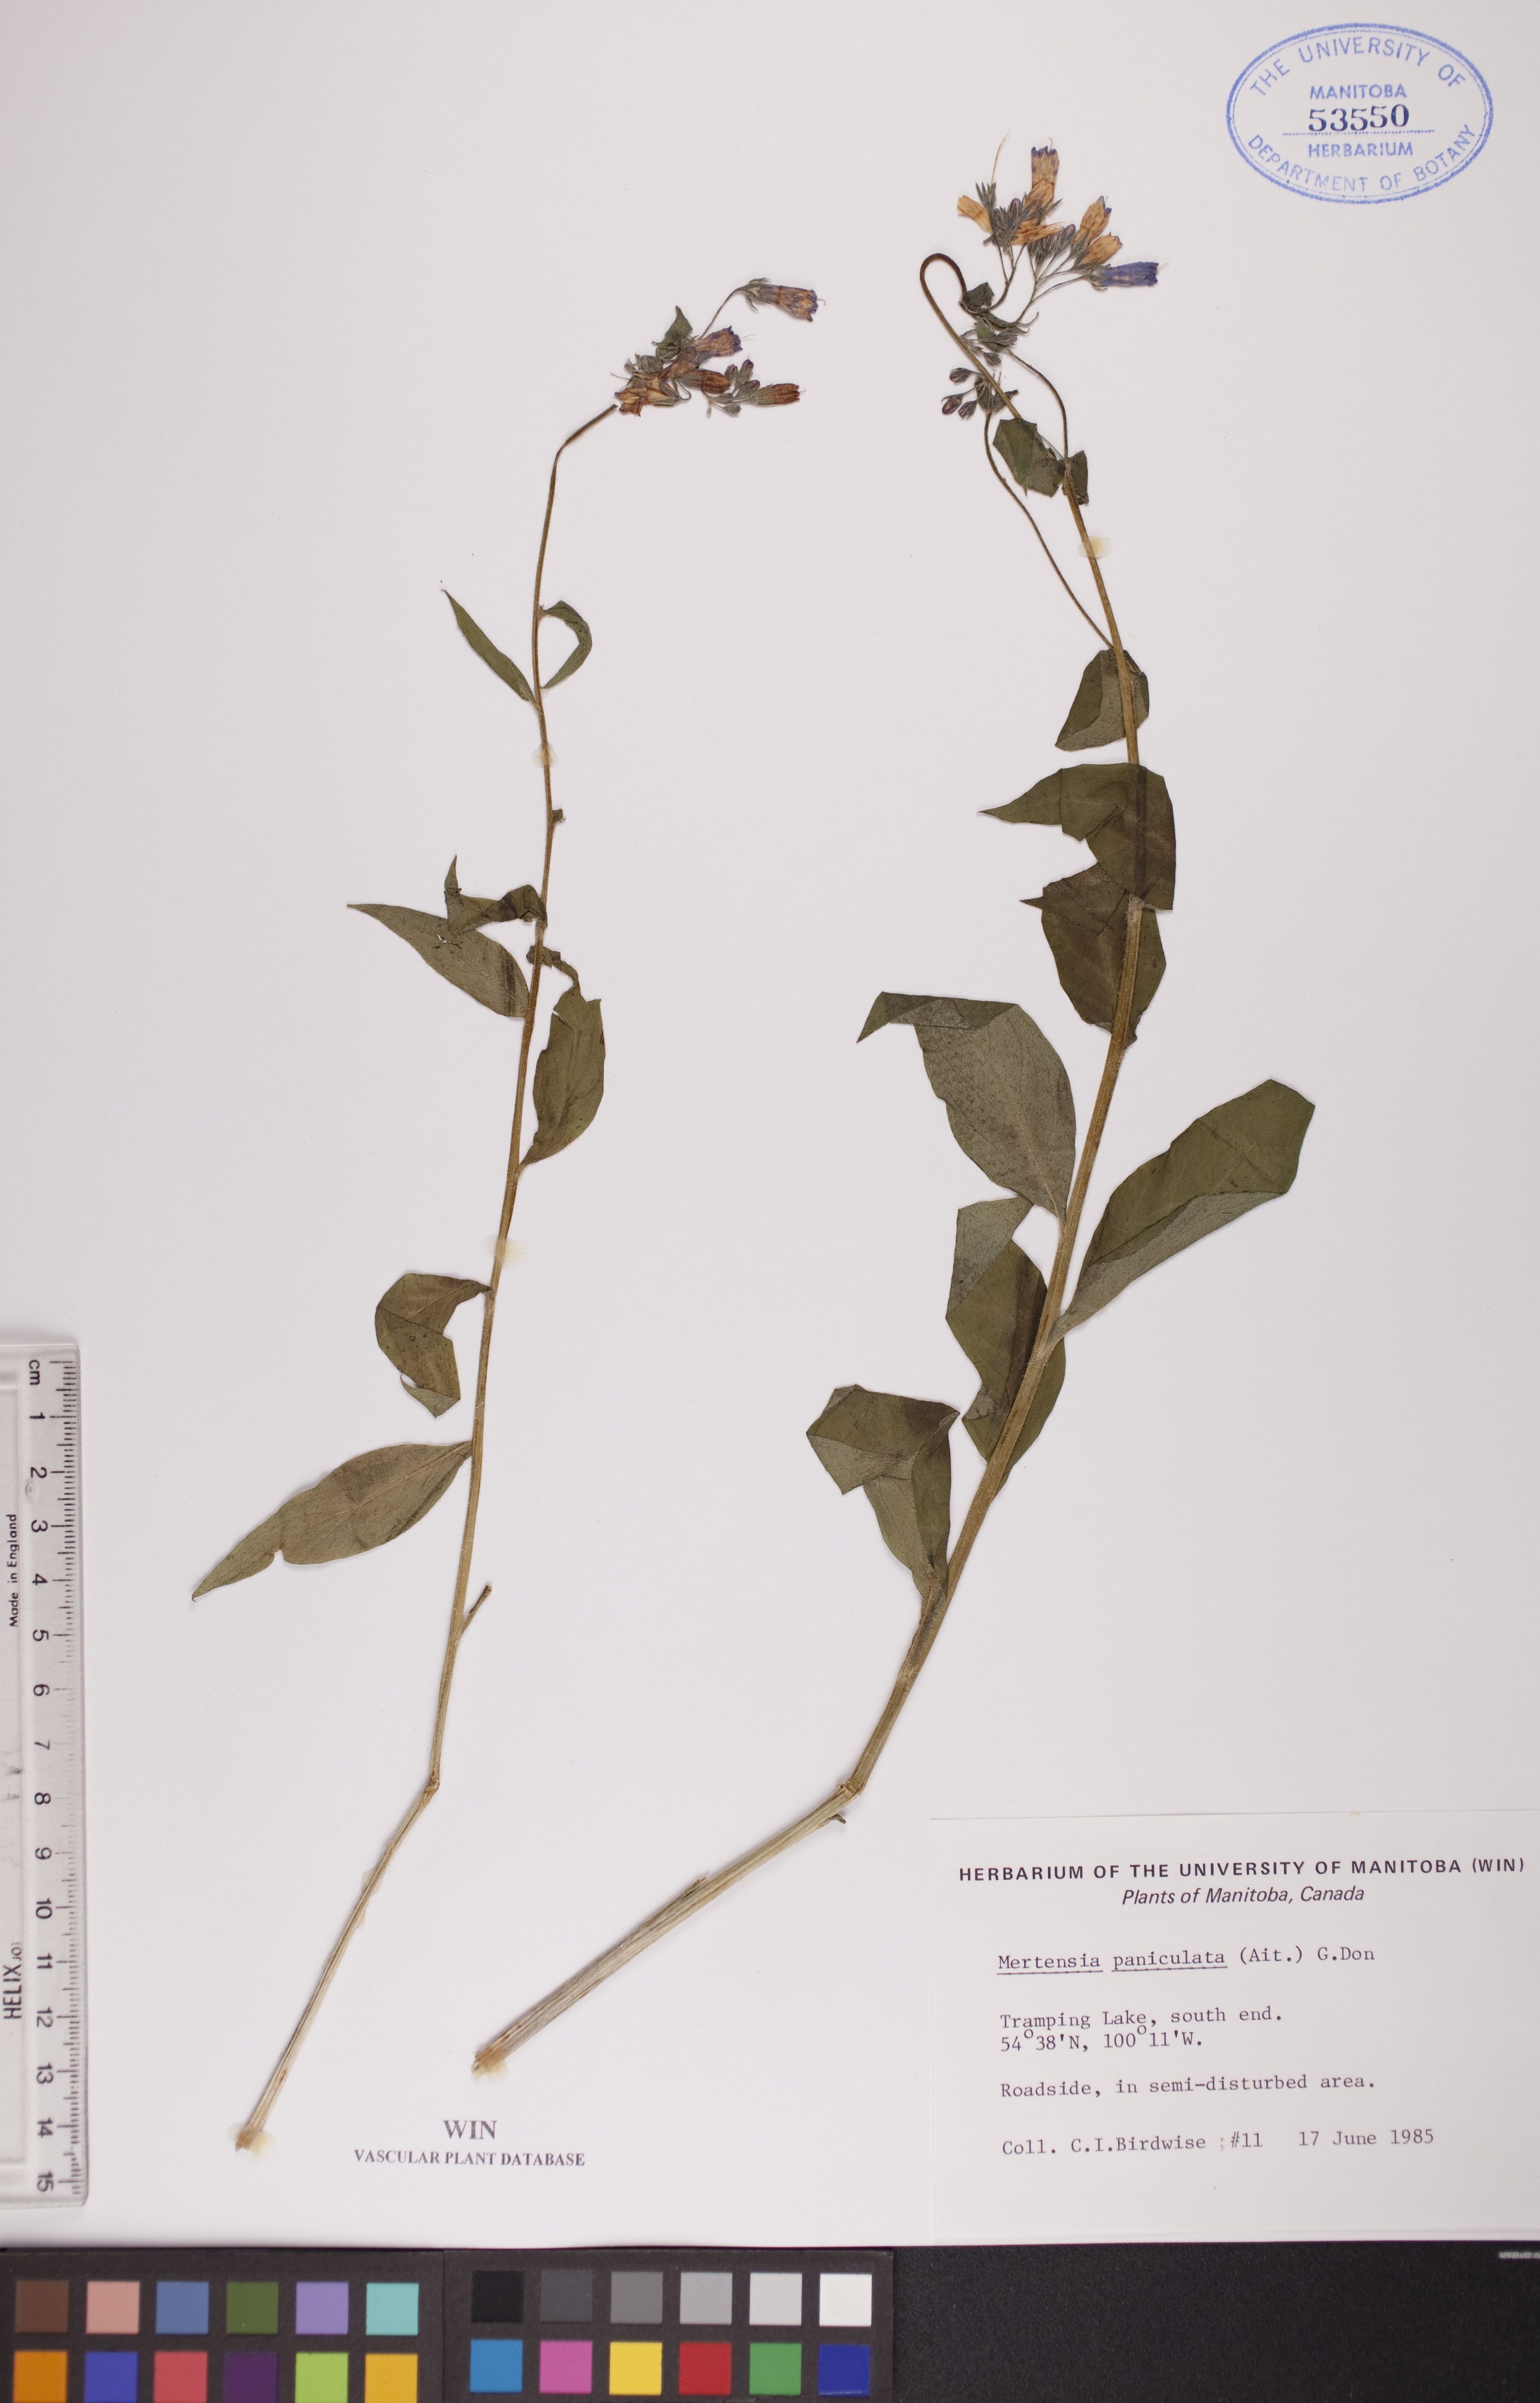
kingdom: Plantae
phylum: Tracheophyta
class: Magnoliopsida
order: Boraginales
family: Boraginaceae
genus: Mertensia
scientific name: Mertensia paniculata
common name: Panicled bluebells
